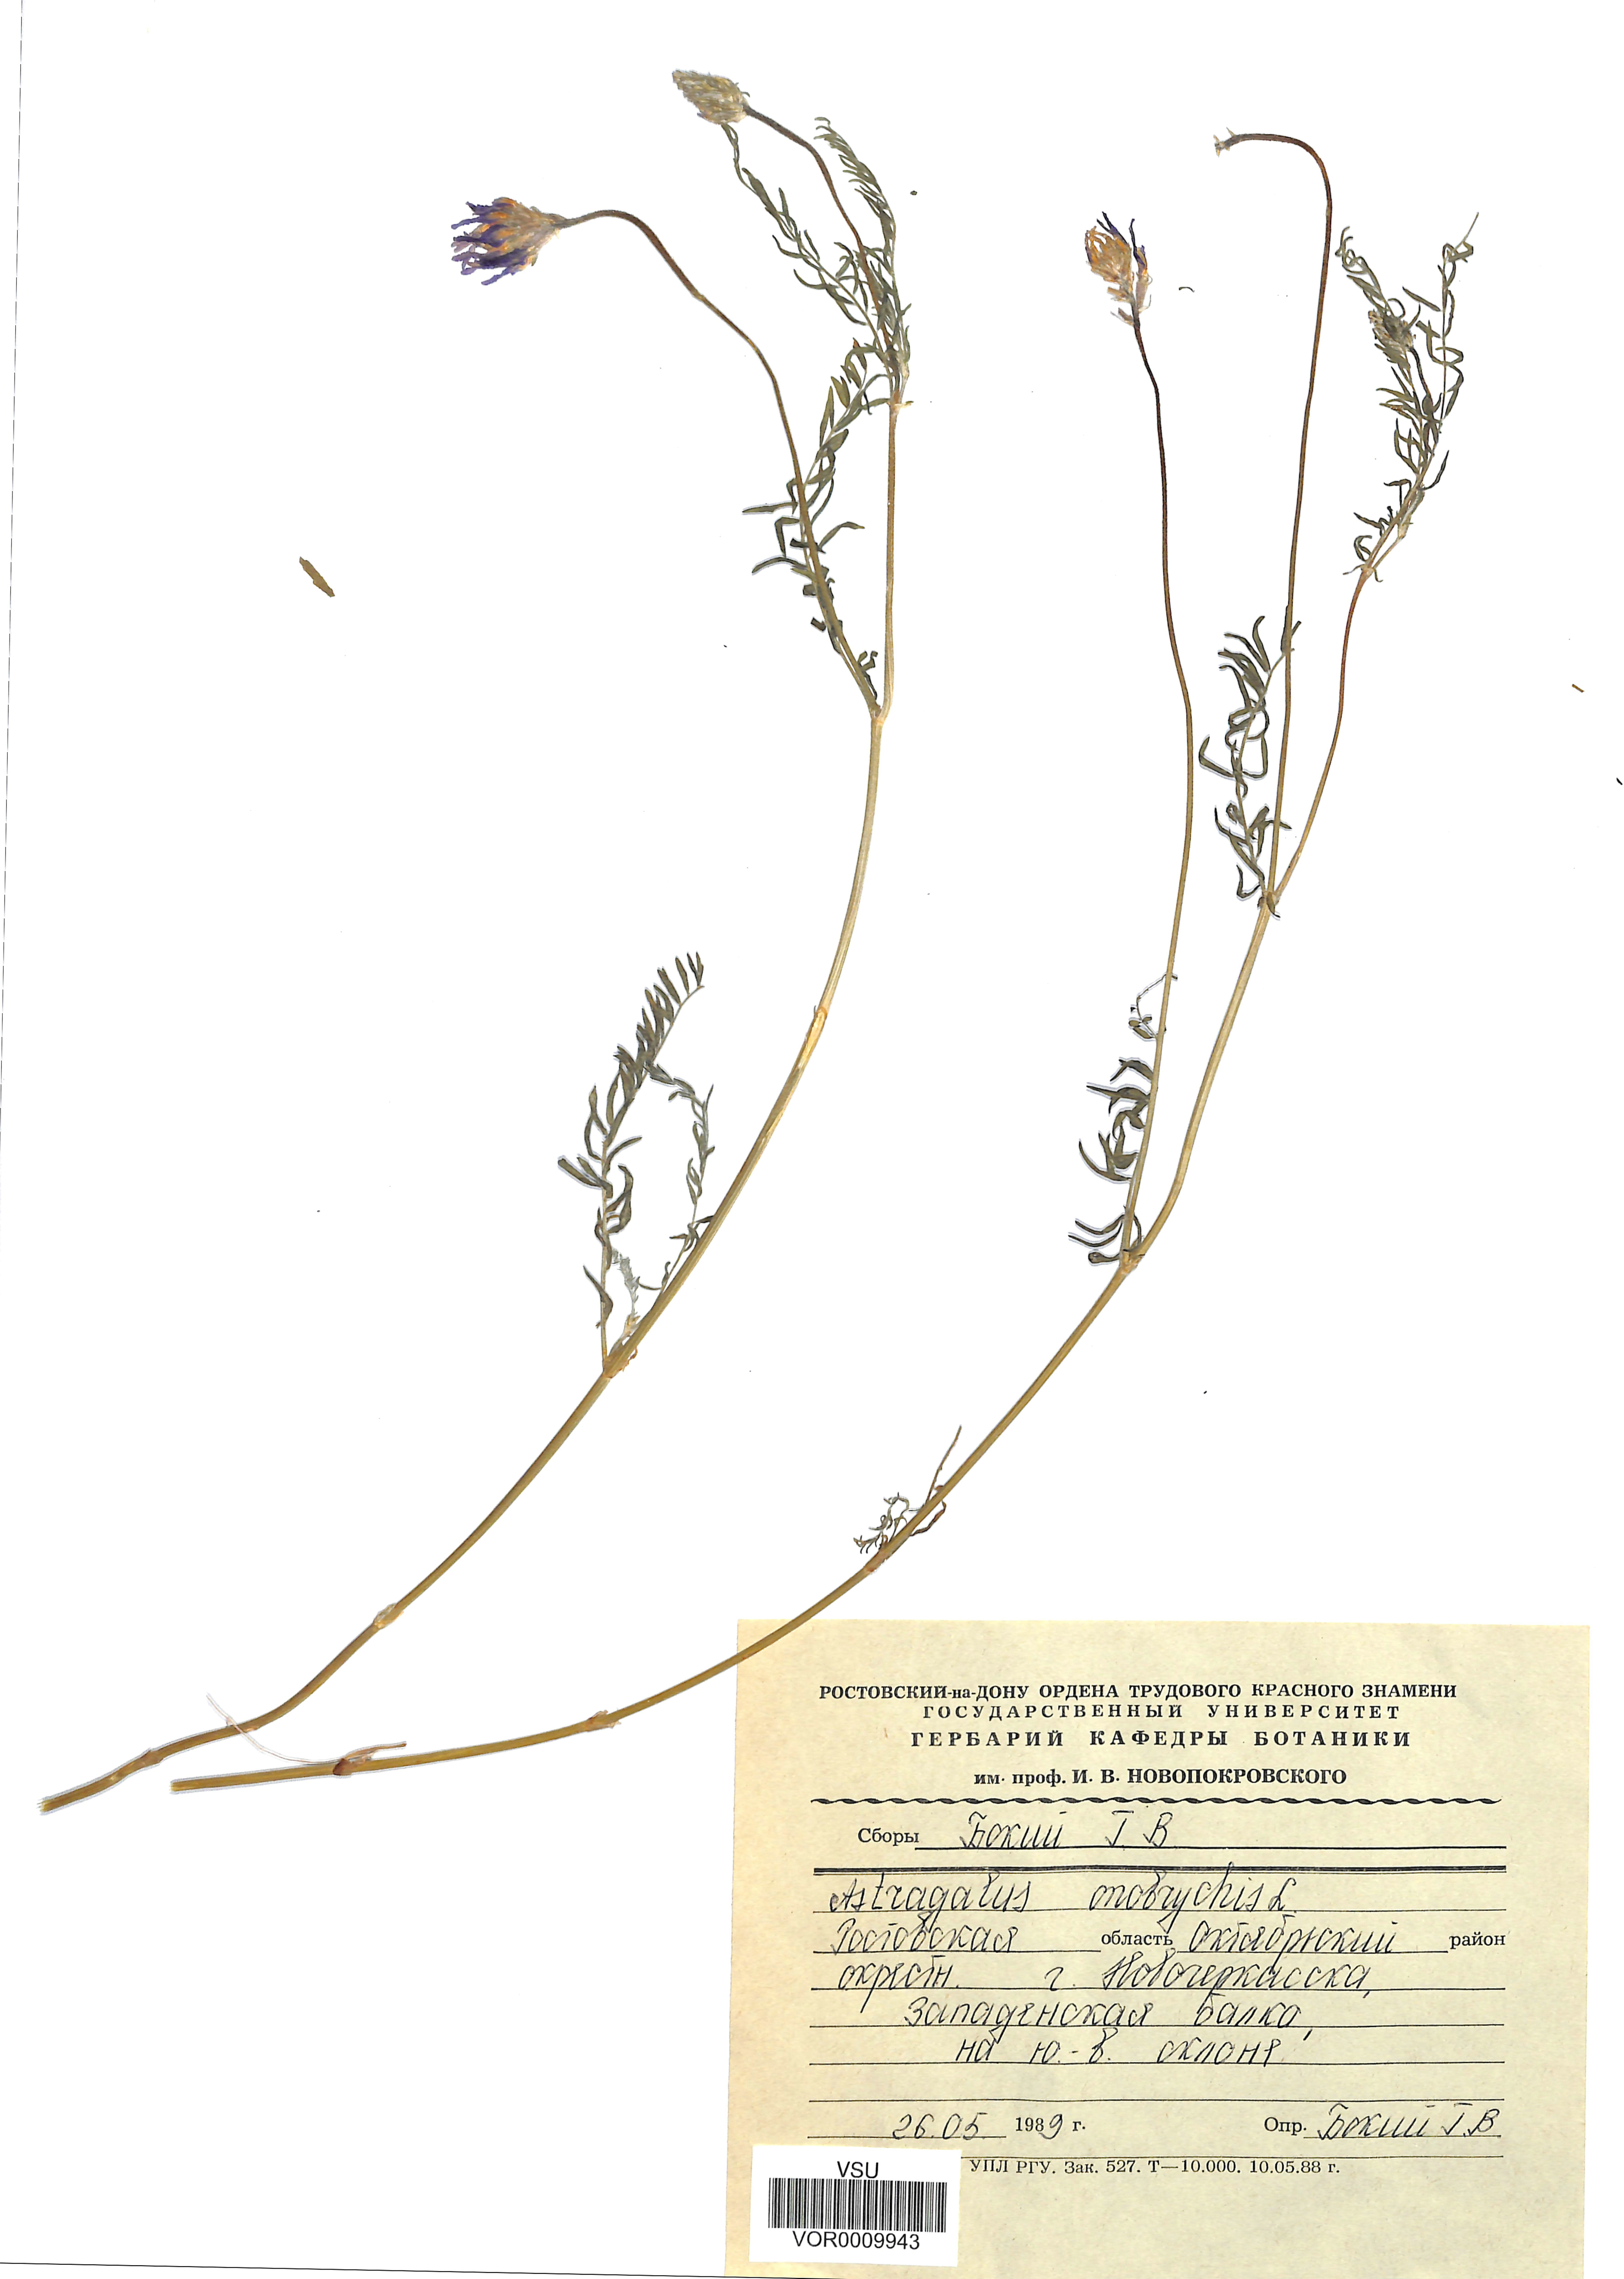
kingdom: Plantae
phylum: Tracheophyta
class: Magnoliopsida
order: Fabales
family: Fabaceae
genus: Astragalus
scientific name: Astragalus onobrychis
